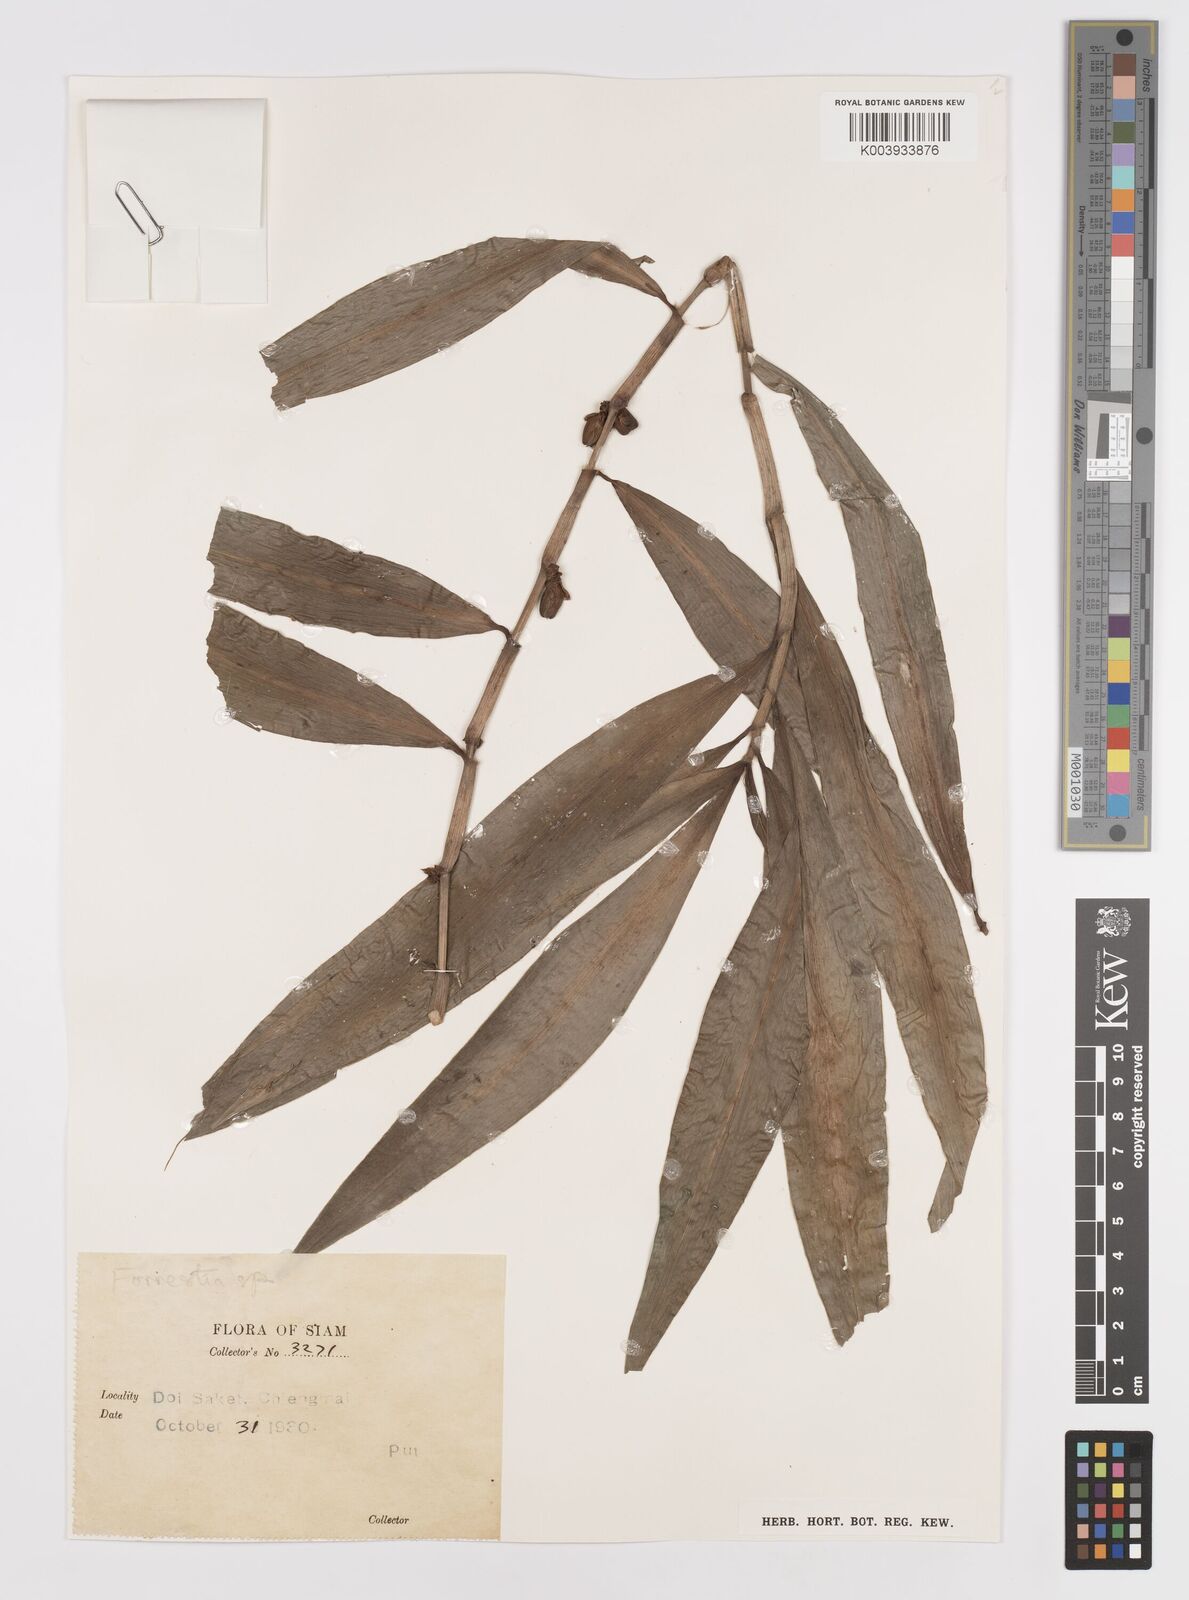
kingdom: Plantae
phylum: Tracheophyta
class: Liliopsida
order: Commelinales
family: Commelinaceae
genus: Amischotolype
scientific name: Amischotolype
